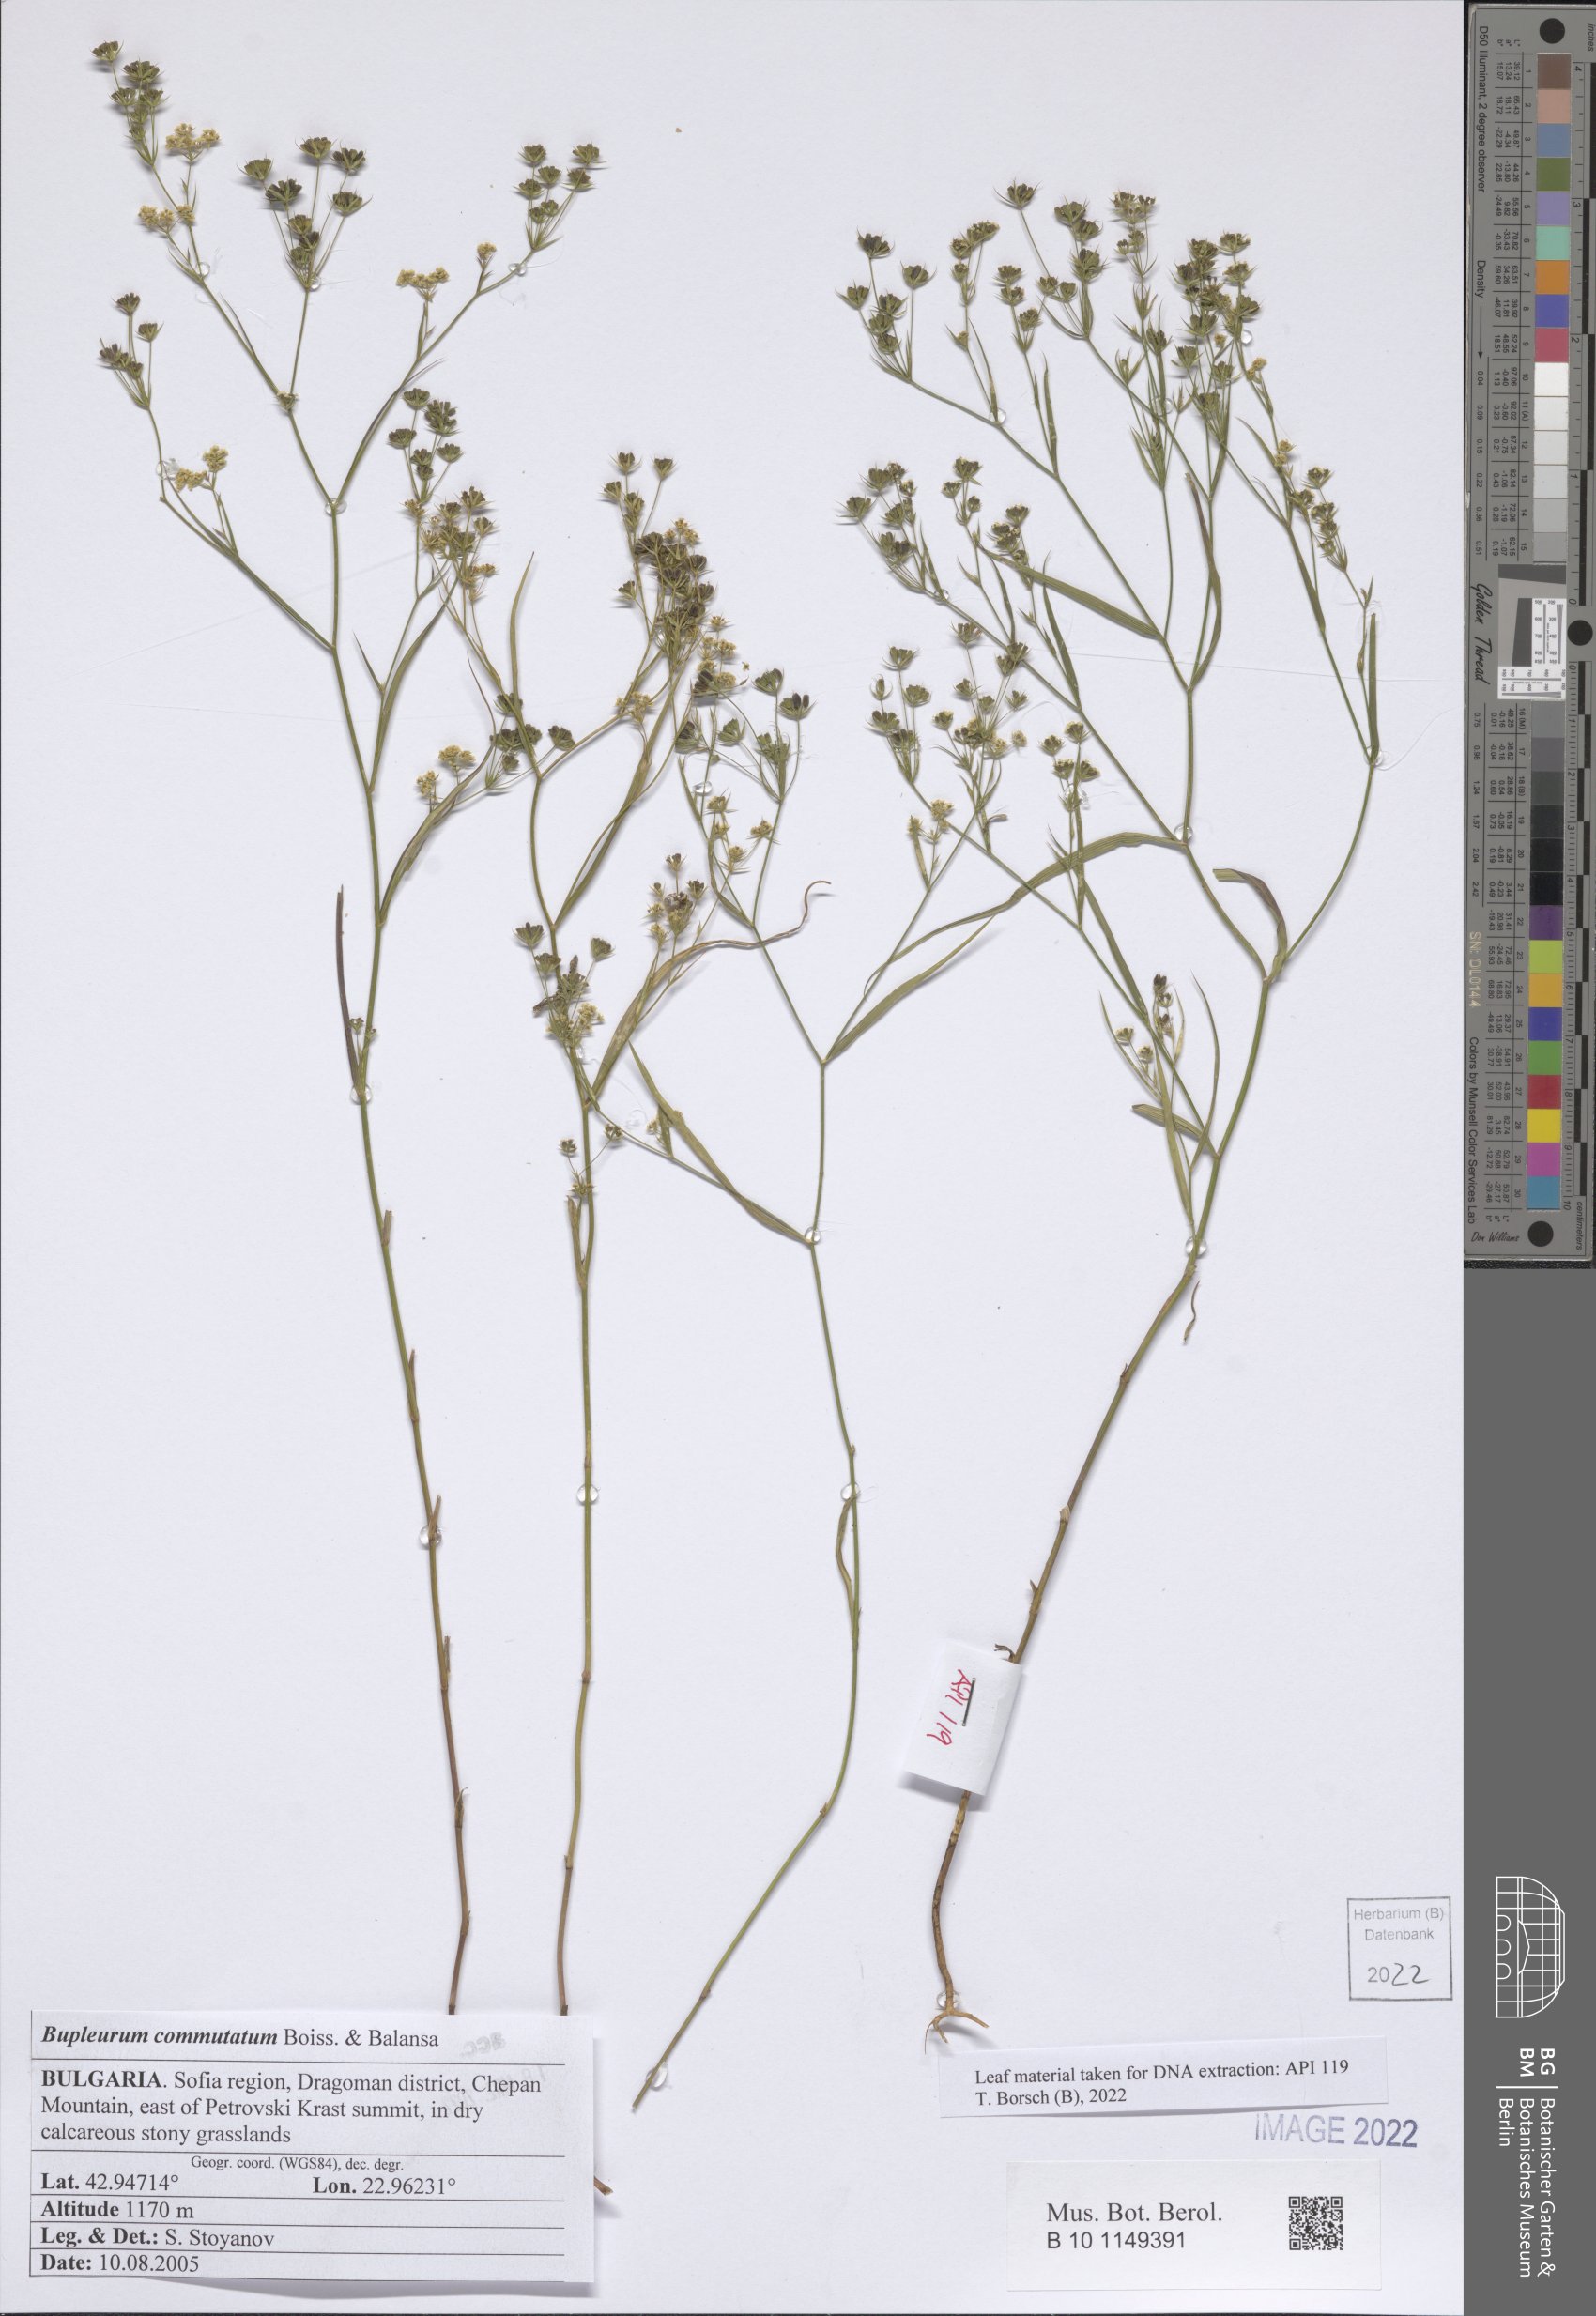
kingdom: Plantae
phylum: Tracheophyta
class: Magnoliopsida
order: Apiales
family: Apiaceae
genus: Bupleurum
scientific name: Bupleurum commutatum
